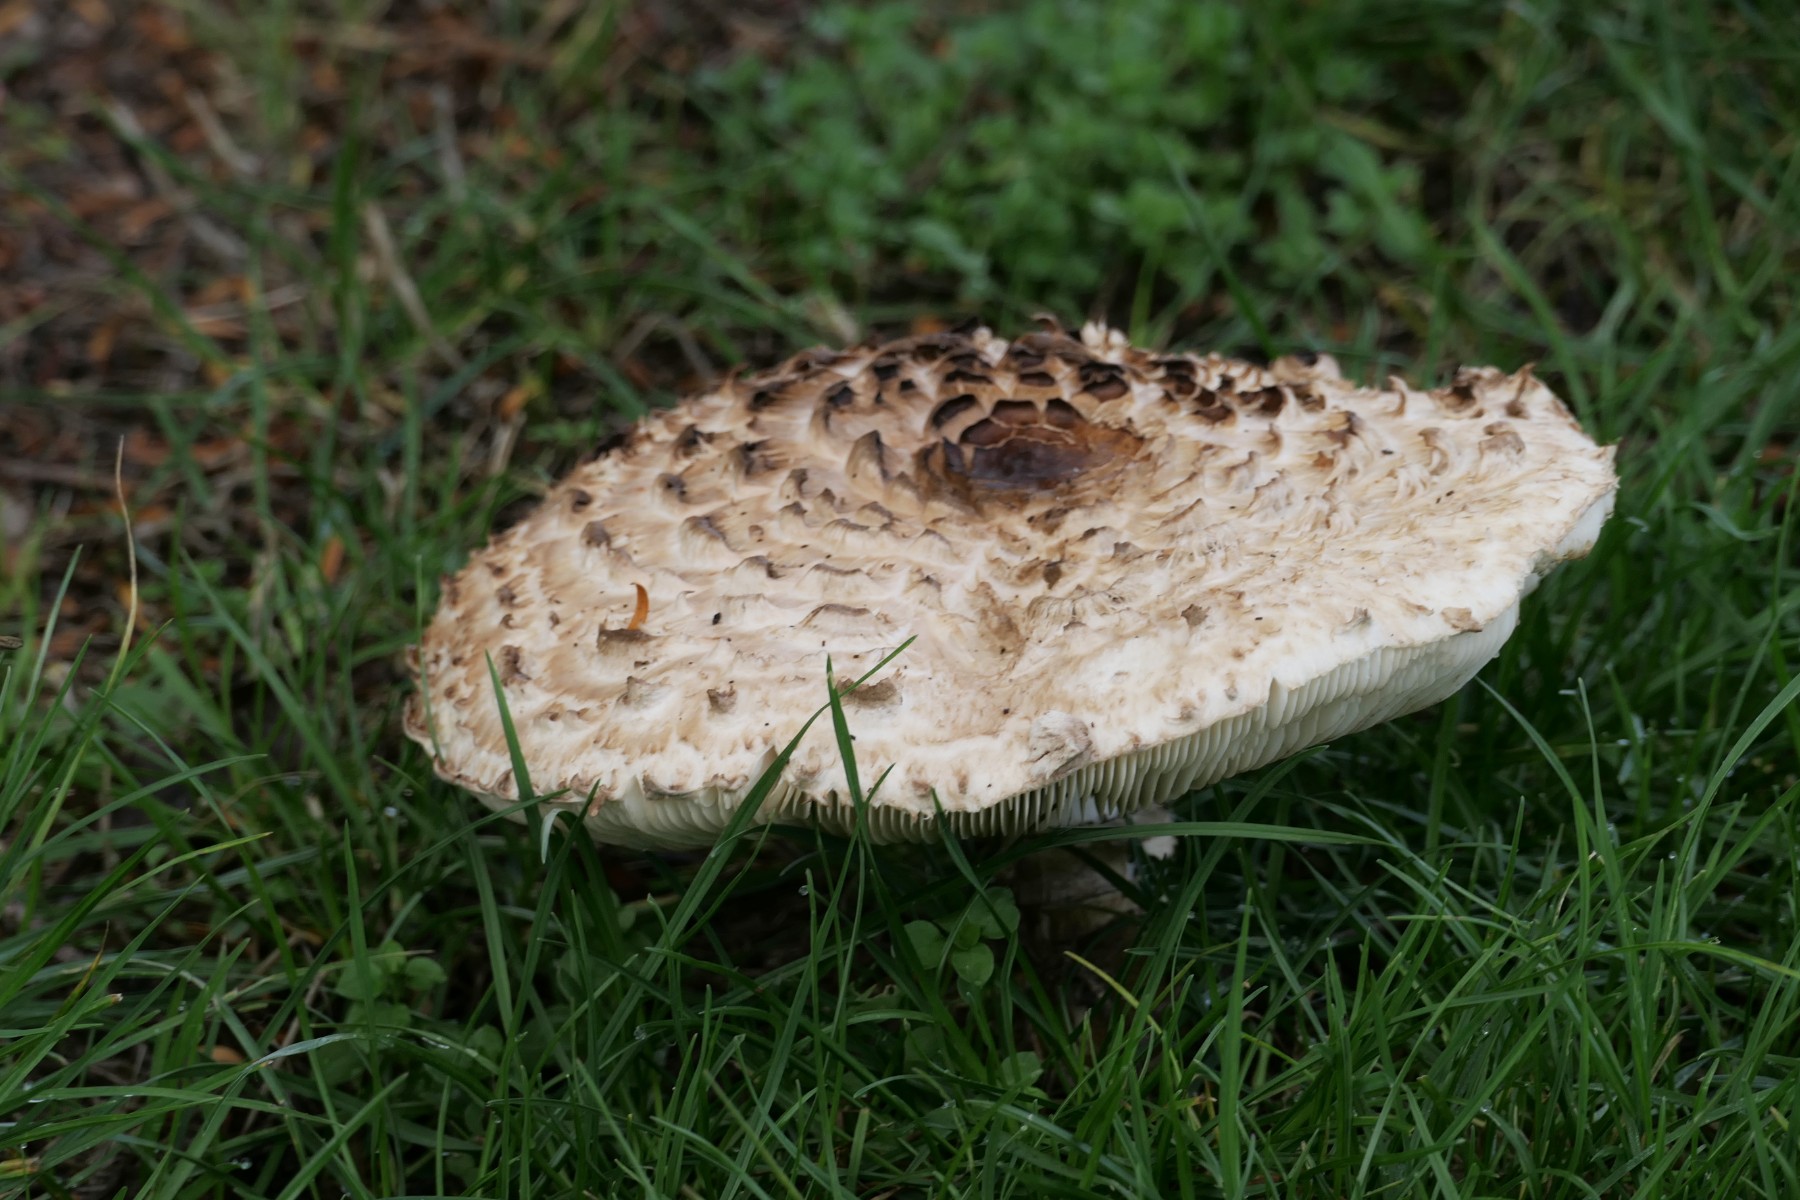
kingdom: Fungi
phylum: Basidiomycota
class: Agaricomycetes
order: Agaricales
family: Agaricaceae
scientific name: Agaricaceae
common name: champignonfamilien
